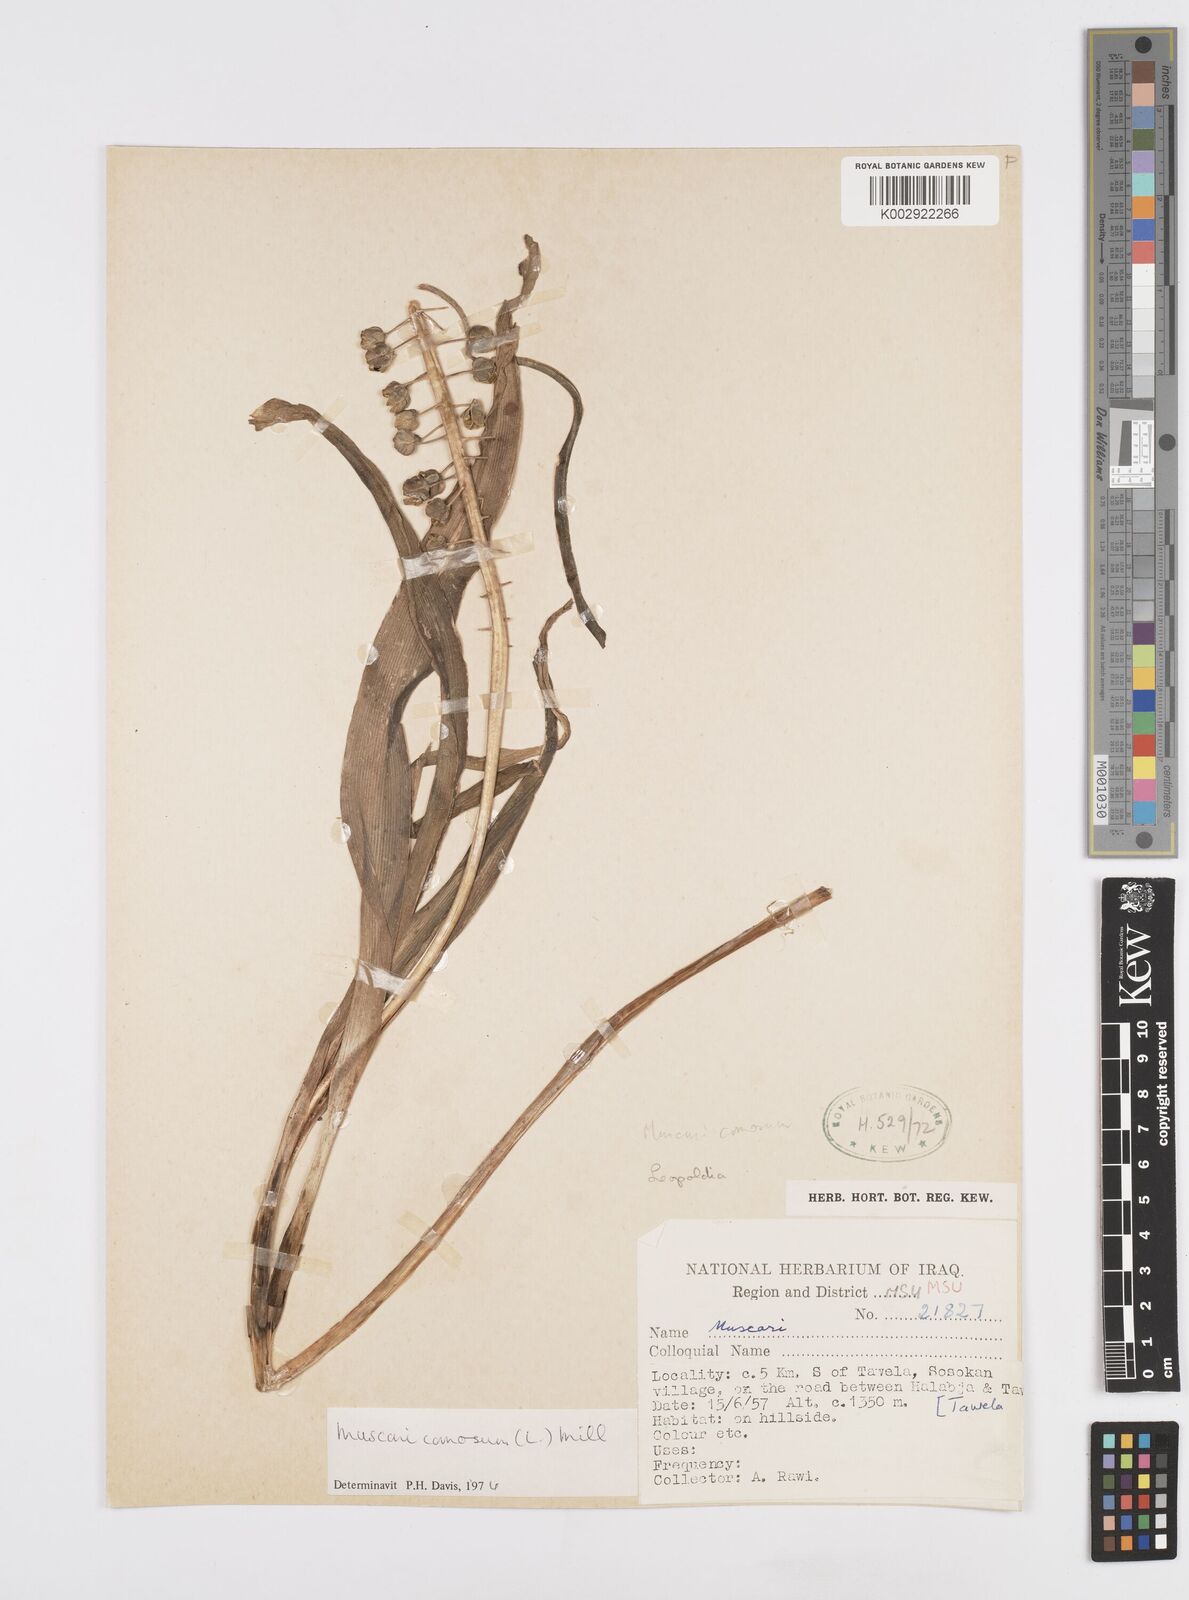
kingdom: Plantae
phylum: Tracheophyta
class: Liliopsida
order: Asparagales
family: Asparagaceae
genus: Muscari
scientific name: Muscari comosum
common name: Tassel hyacinth
